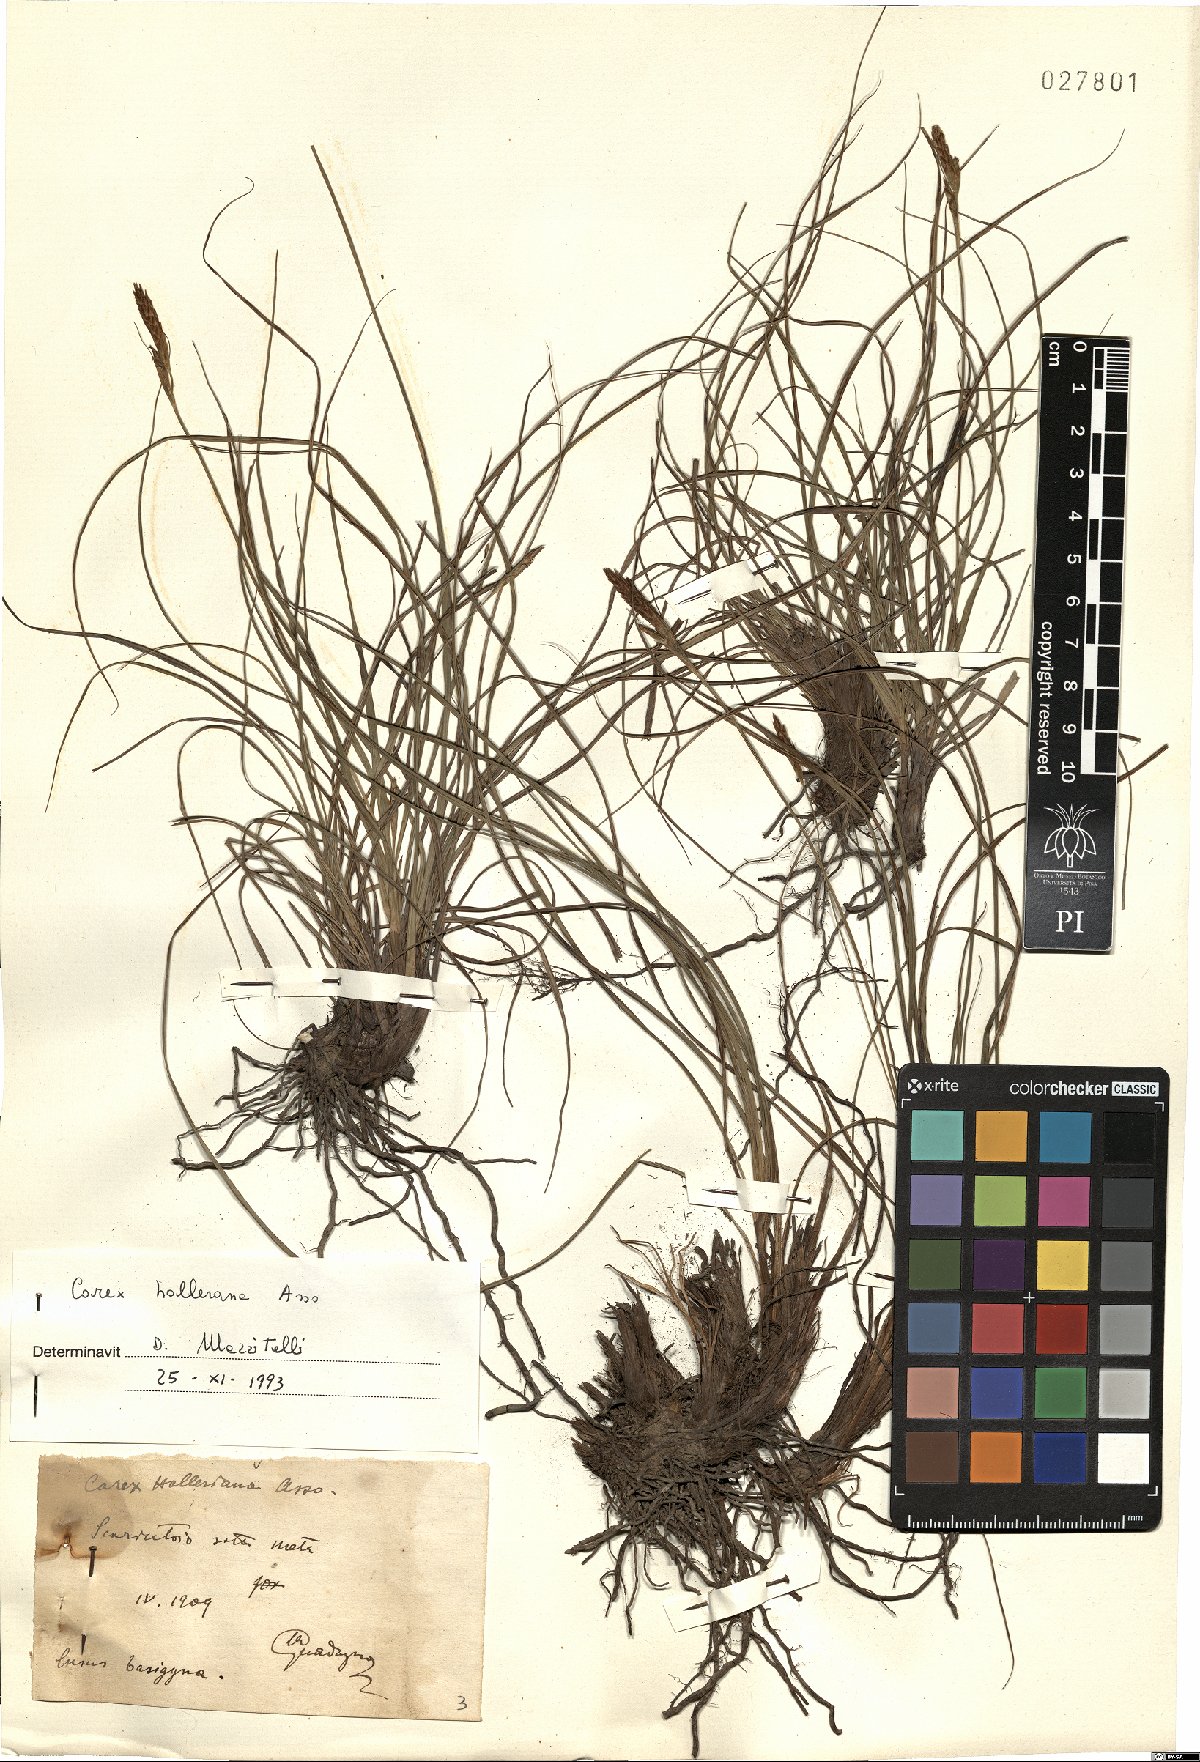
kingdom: Plantae
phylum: Tracheophyta
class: Liliopsida
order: Poales
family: Cyperaceae
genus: Carex
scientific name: Carex halleriana
